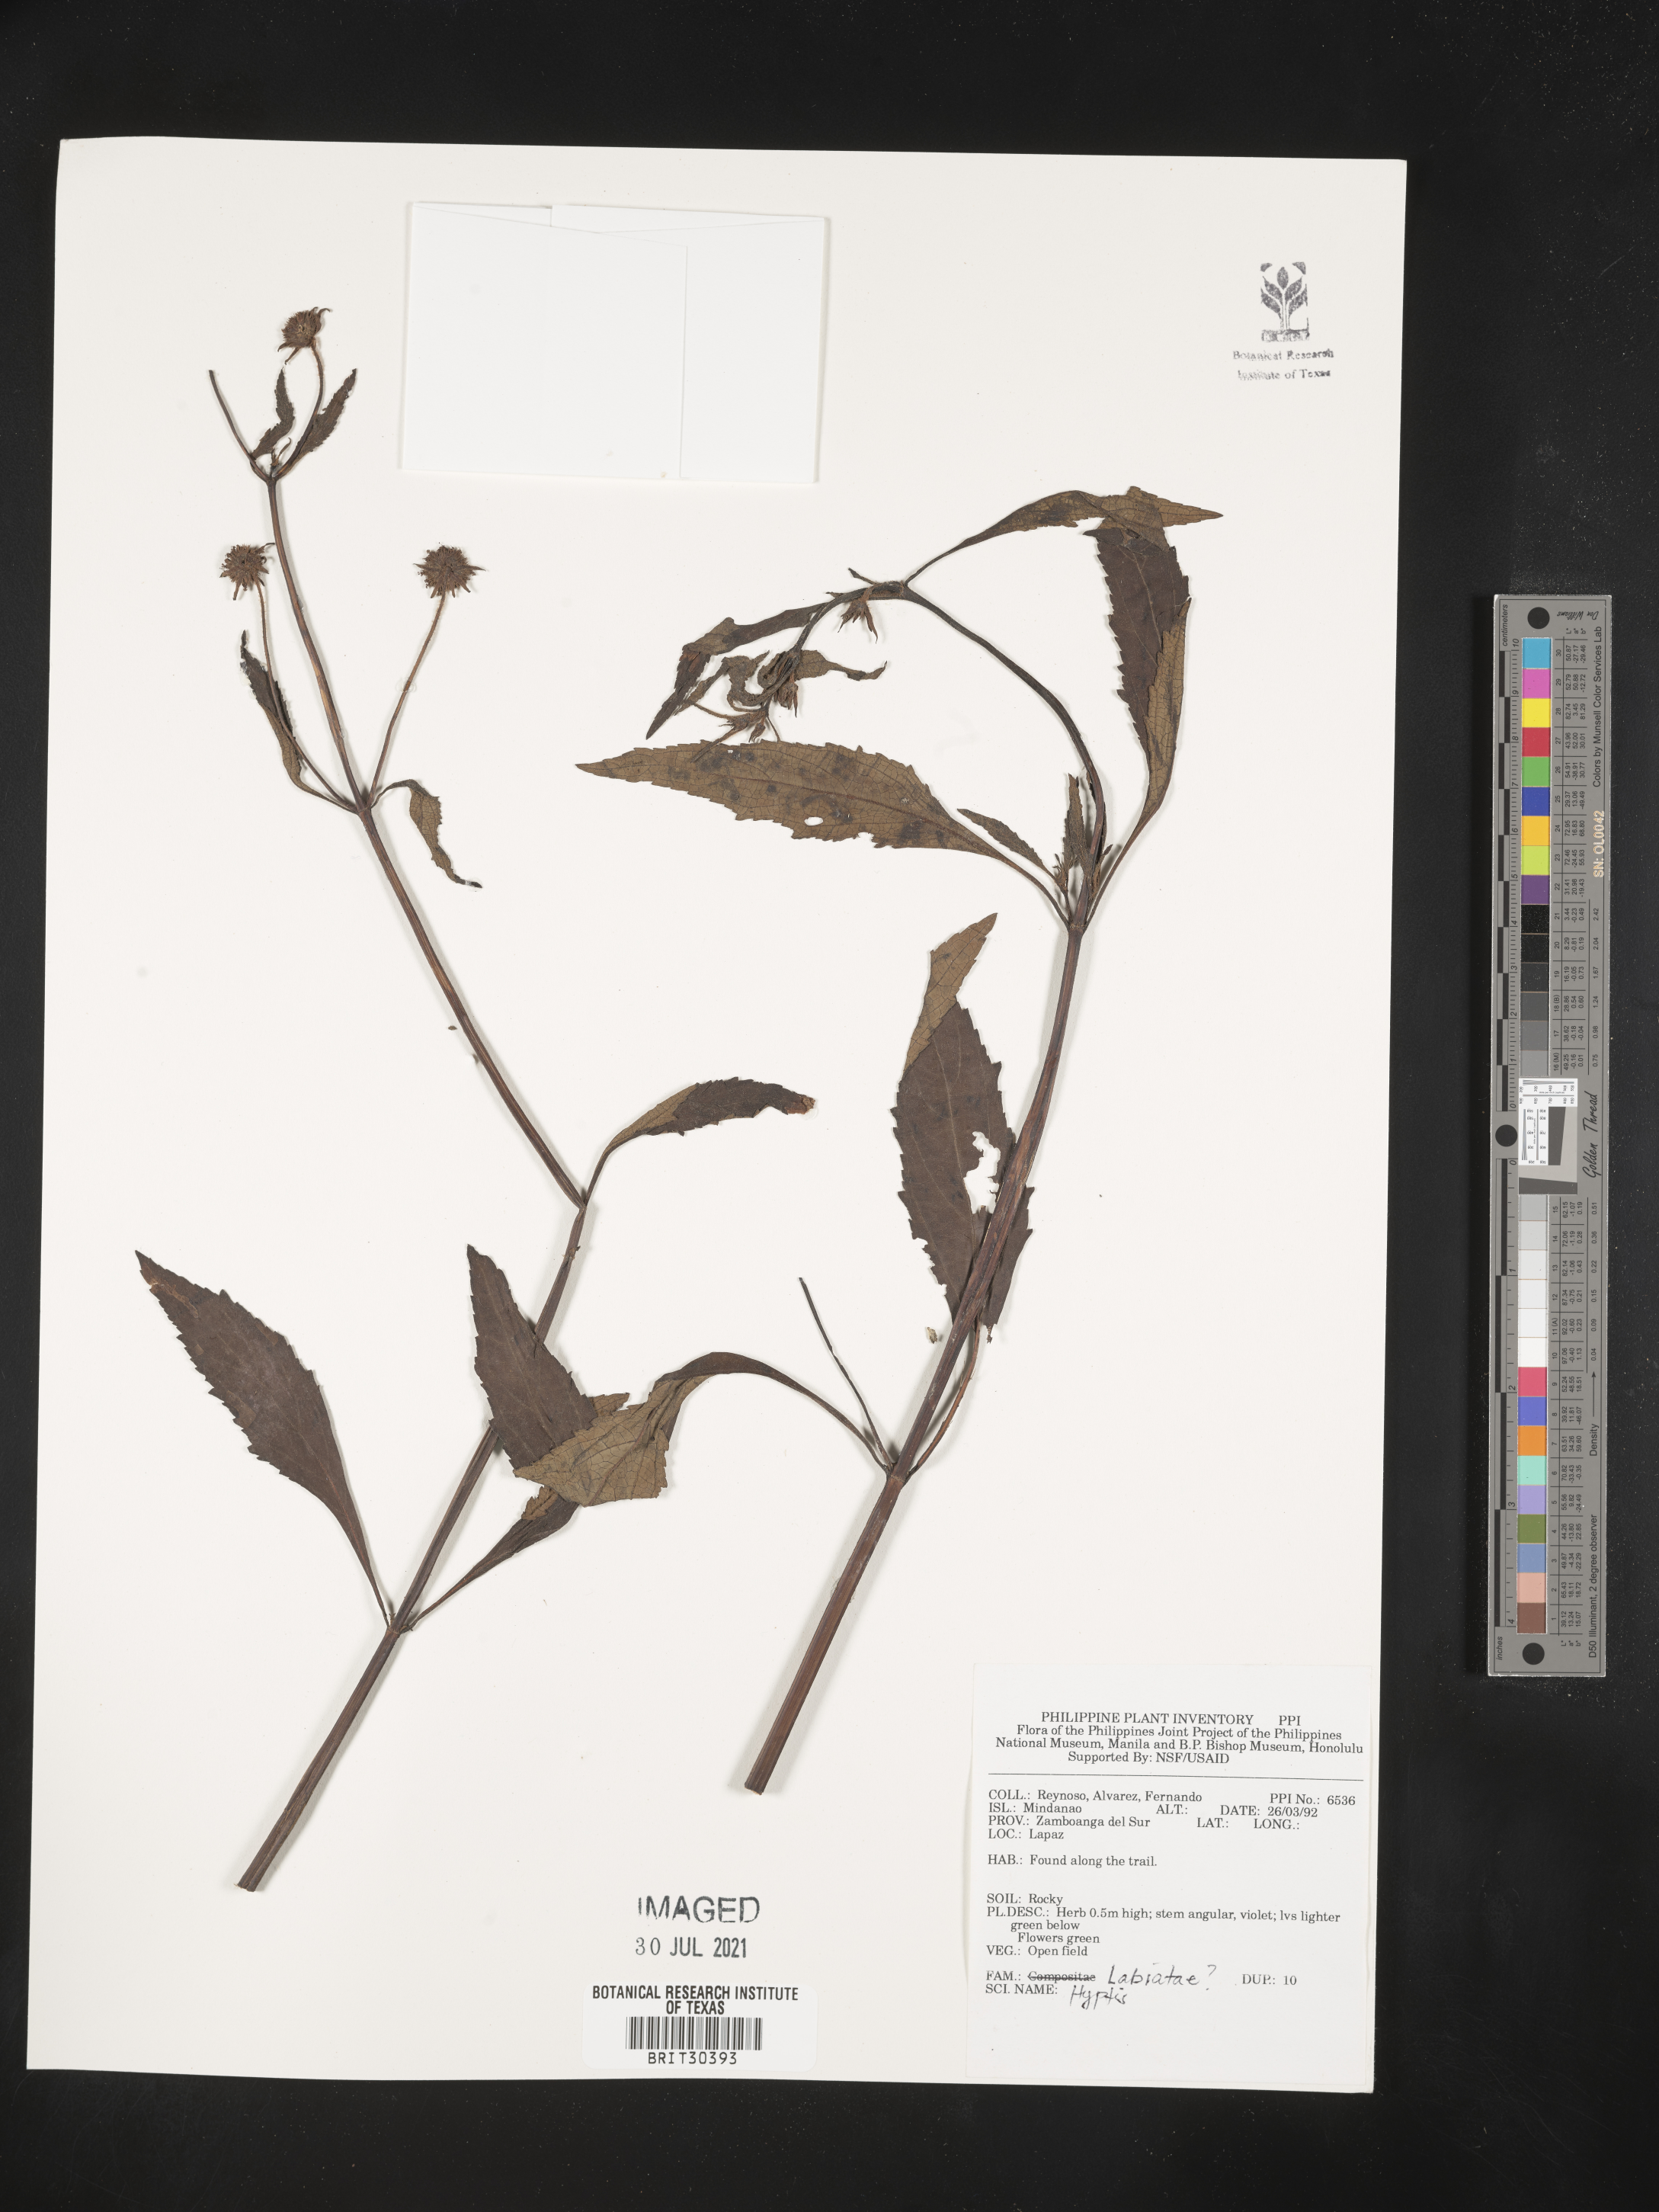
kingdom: Plantae
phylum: Tracheophyta
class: Magnoliopsida
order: Lamiales
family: Lamiaceae
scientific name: Lamiaceae
